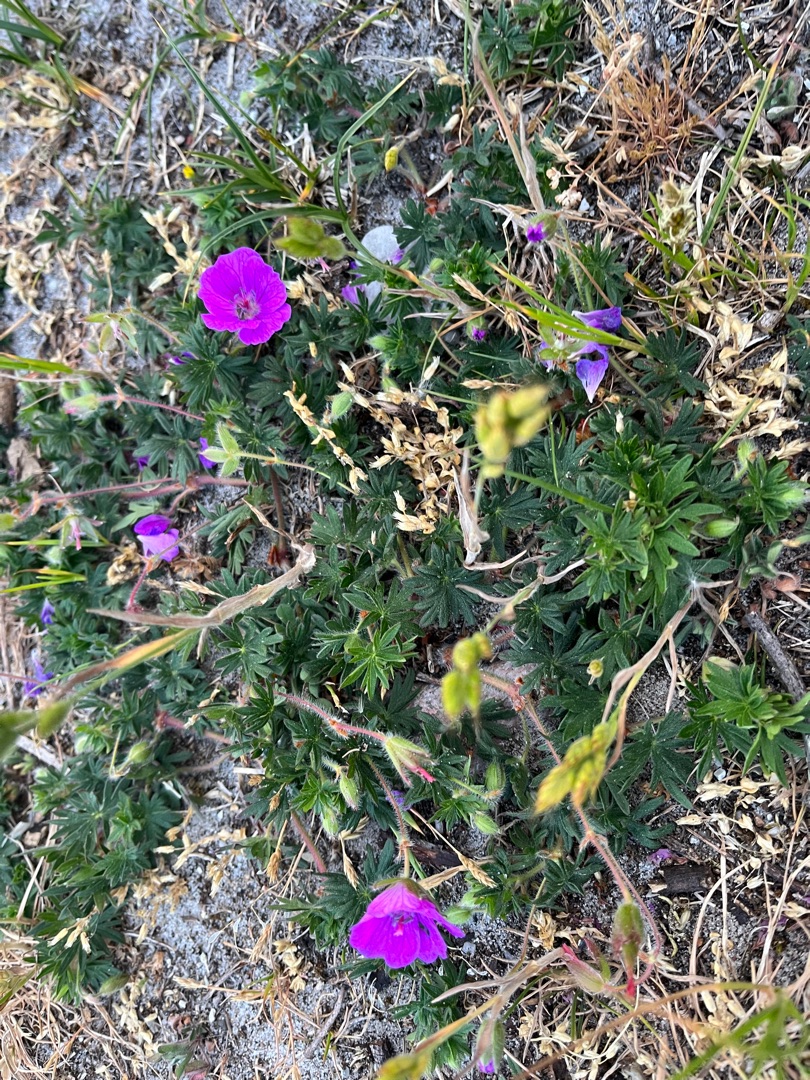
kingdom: Plantae
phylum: Tracheophyta
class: Magnoliopsida
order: Geraniales
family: Geraniaceae
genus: Geranium
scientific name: Geranium sanguineum
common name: Blodrød storkenæb
